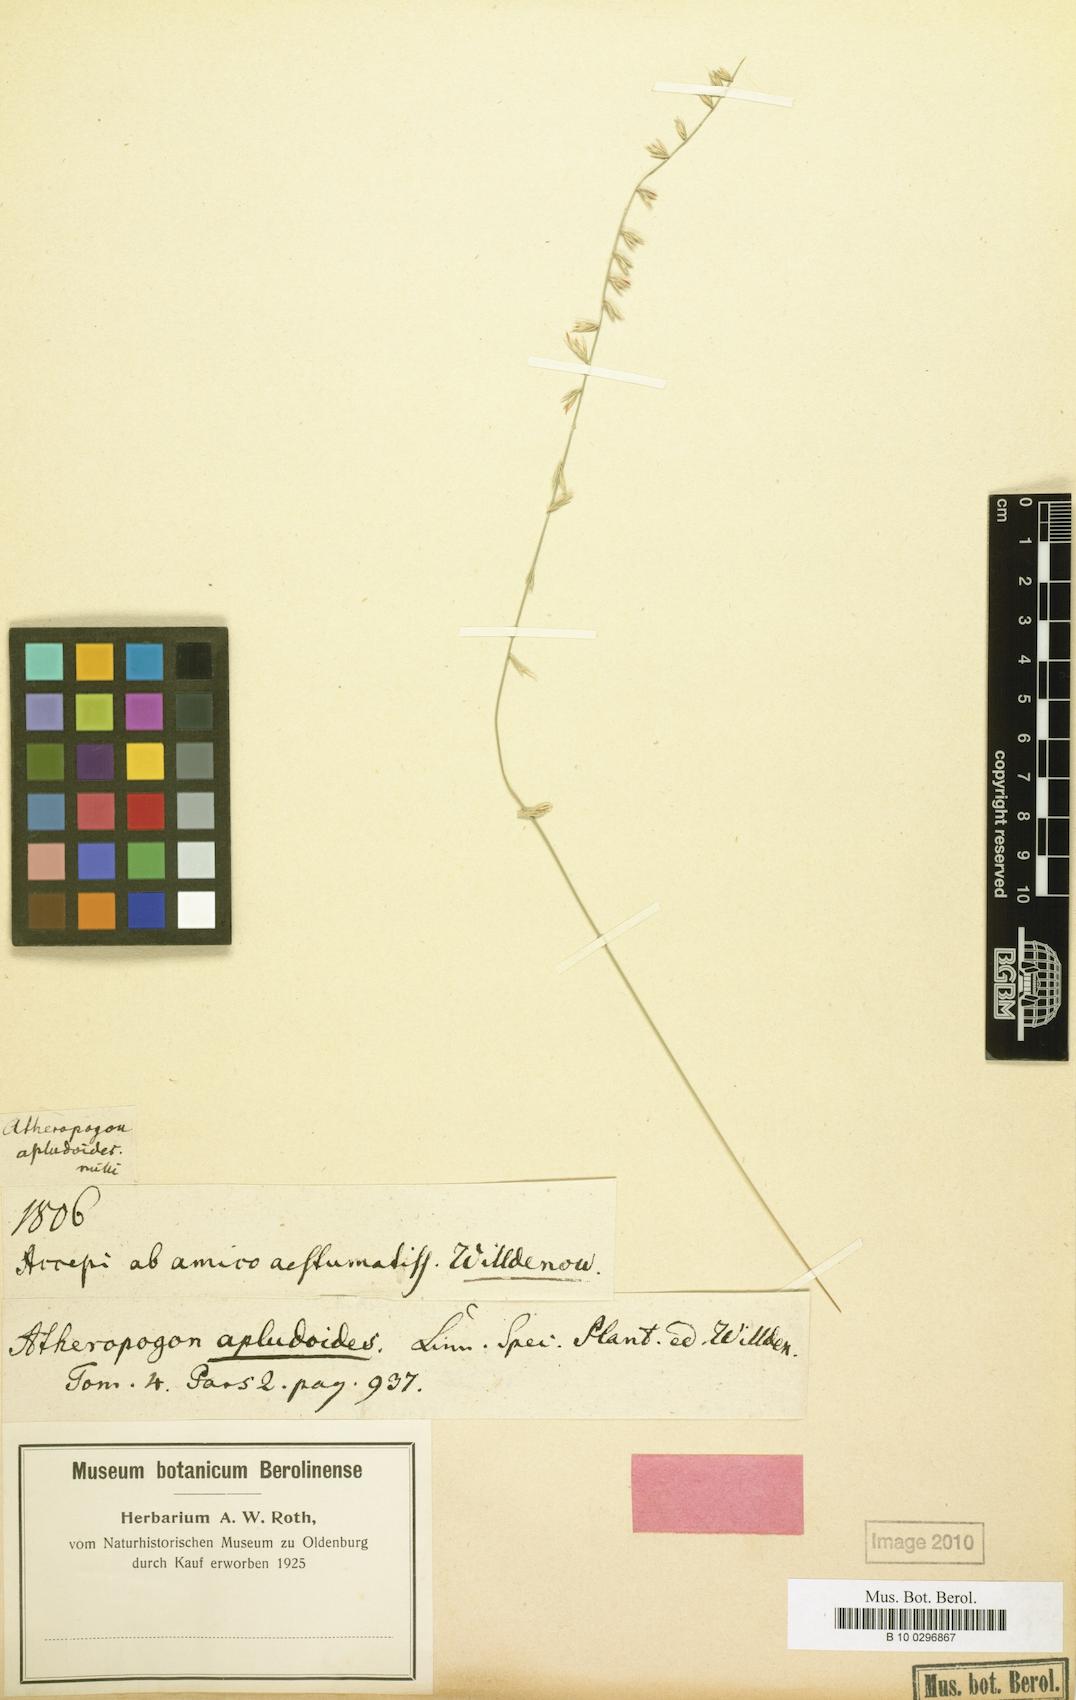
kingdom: Plantae
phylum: Tracheophyta
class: Liliopsida
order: Poales
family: Poaceae
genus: Bouteloua
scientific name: Bouteloua curtipendula
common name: Side-oats grama
